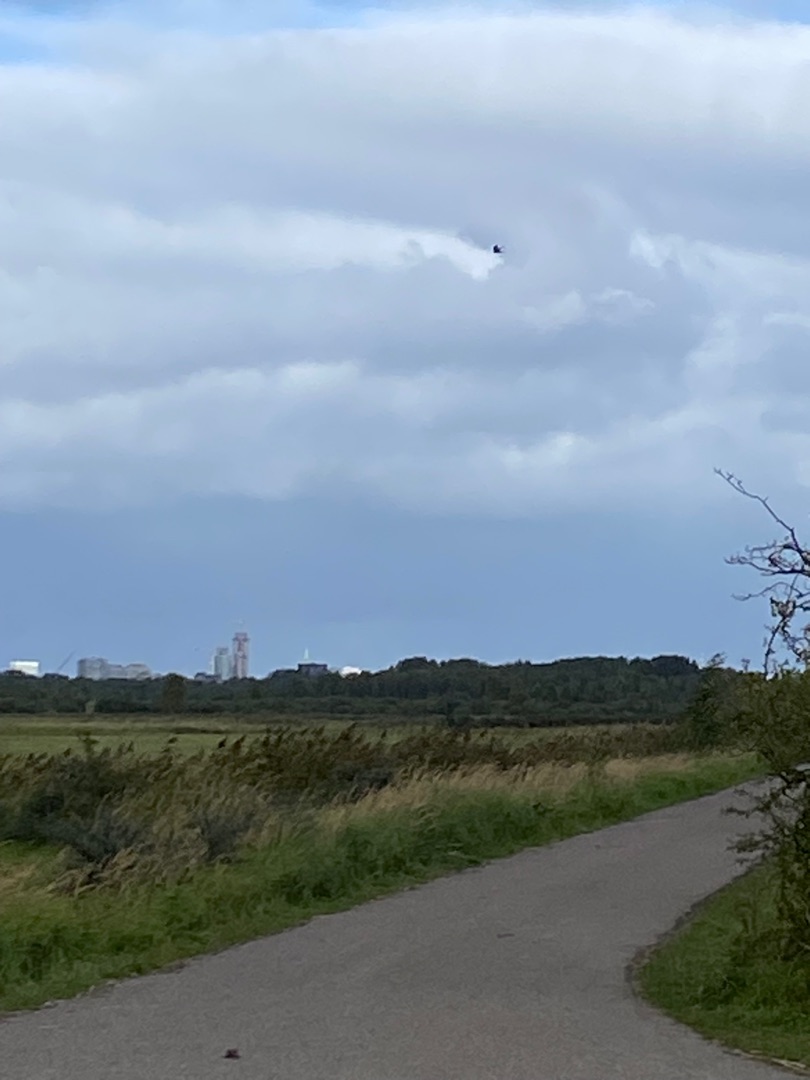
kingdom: Animalia
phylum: Chordata
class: Aves
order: Falconiformes
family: Falconidae
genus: Falco
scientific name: Falco tinnunculus
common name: Tårnfalk
